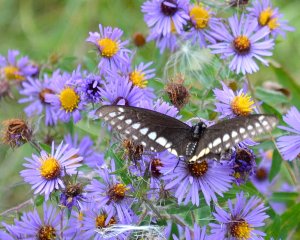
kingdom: Animalia
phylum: Arthropoda
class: Insecta
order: Lepidoptera
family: Papilionidae
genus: Papilio
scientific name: Papilio polyxenes
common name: Black Swallowtail
